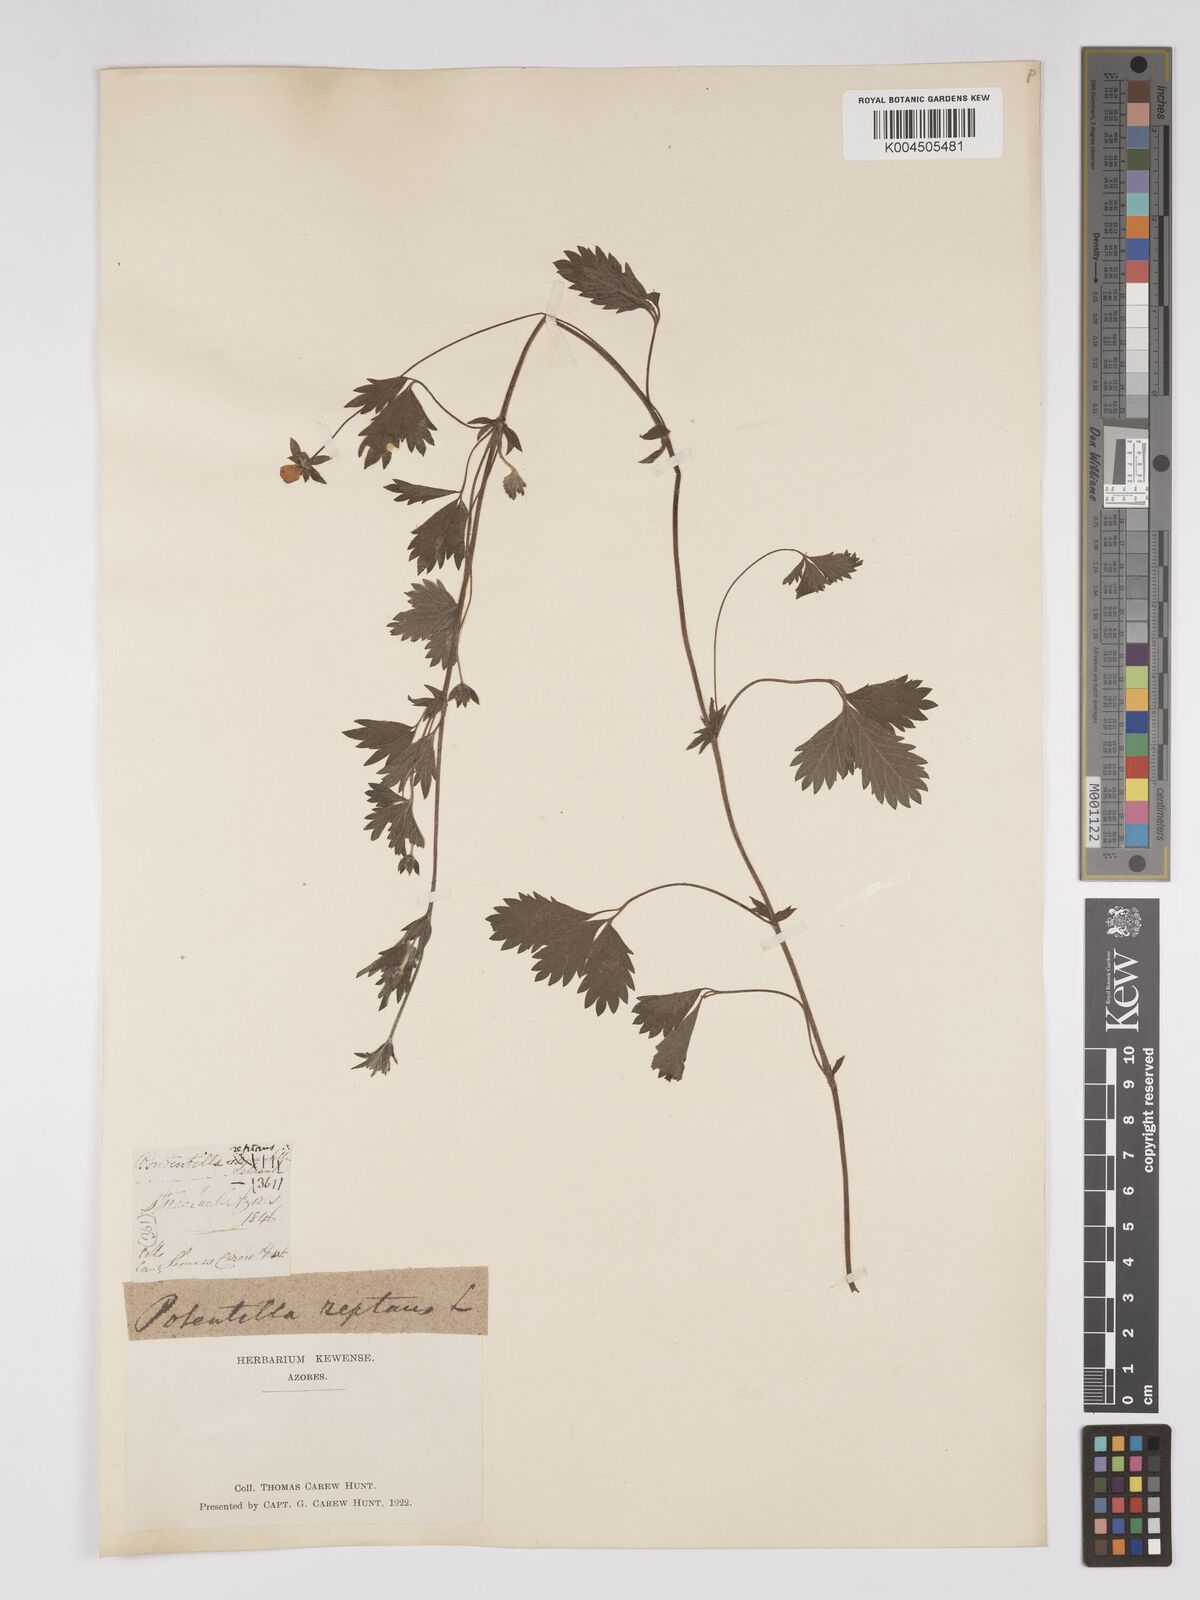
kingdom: Plantae
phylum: Tracheophyta
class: Magnoliopsida
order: Rosales
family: Rosaceae
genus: Potentilla
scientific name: Potentilla
